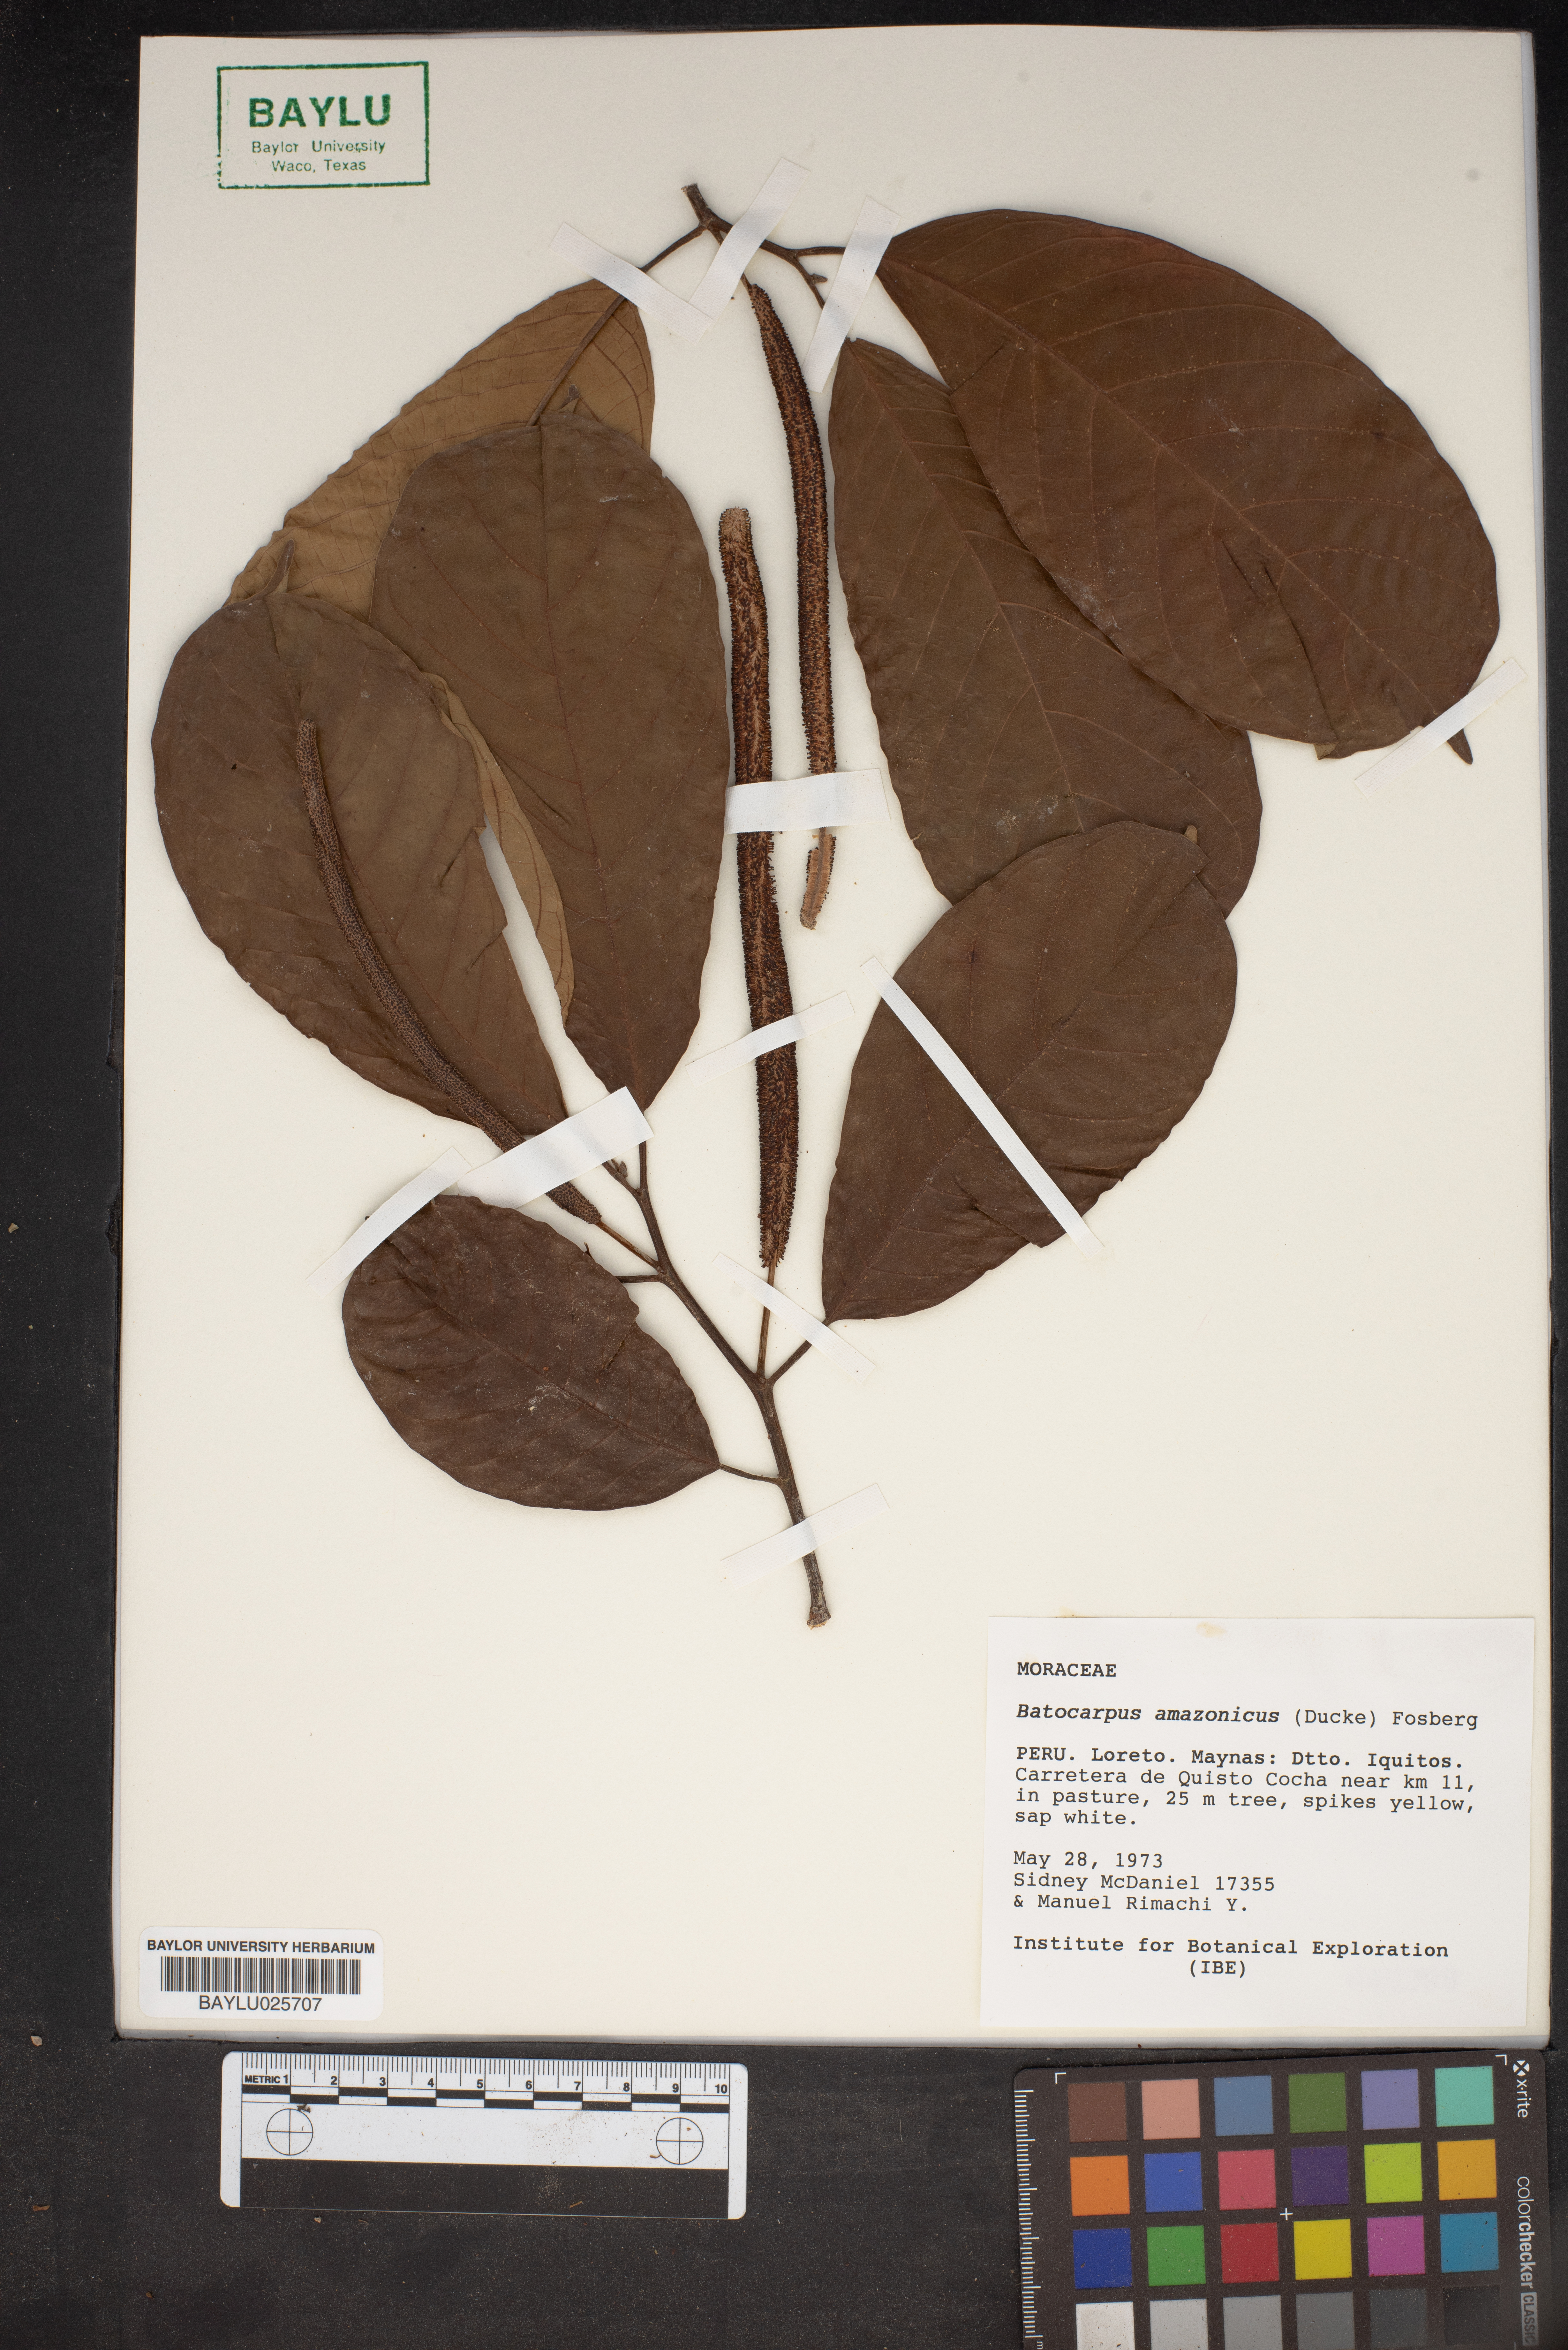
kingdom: Plantae
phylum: Tracheophyta
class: Magnoliopsida
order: Rosales
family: Moraceae
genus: Batocarpus
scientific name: Batocarpus amazonicus
